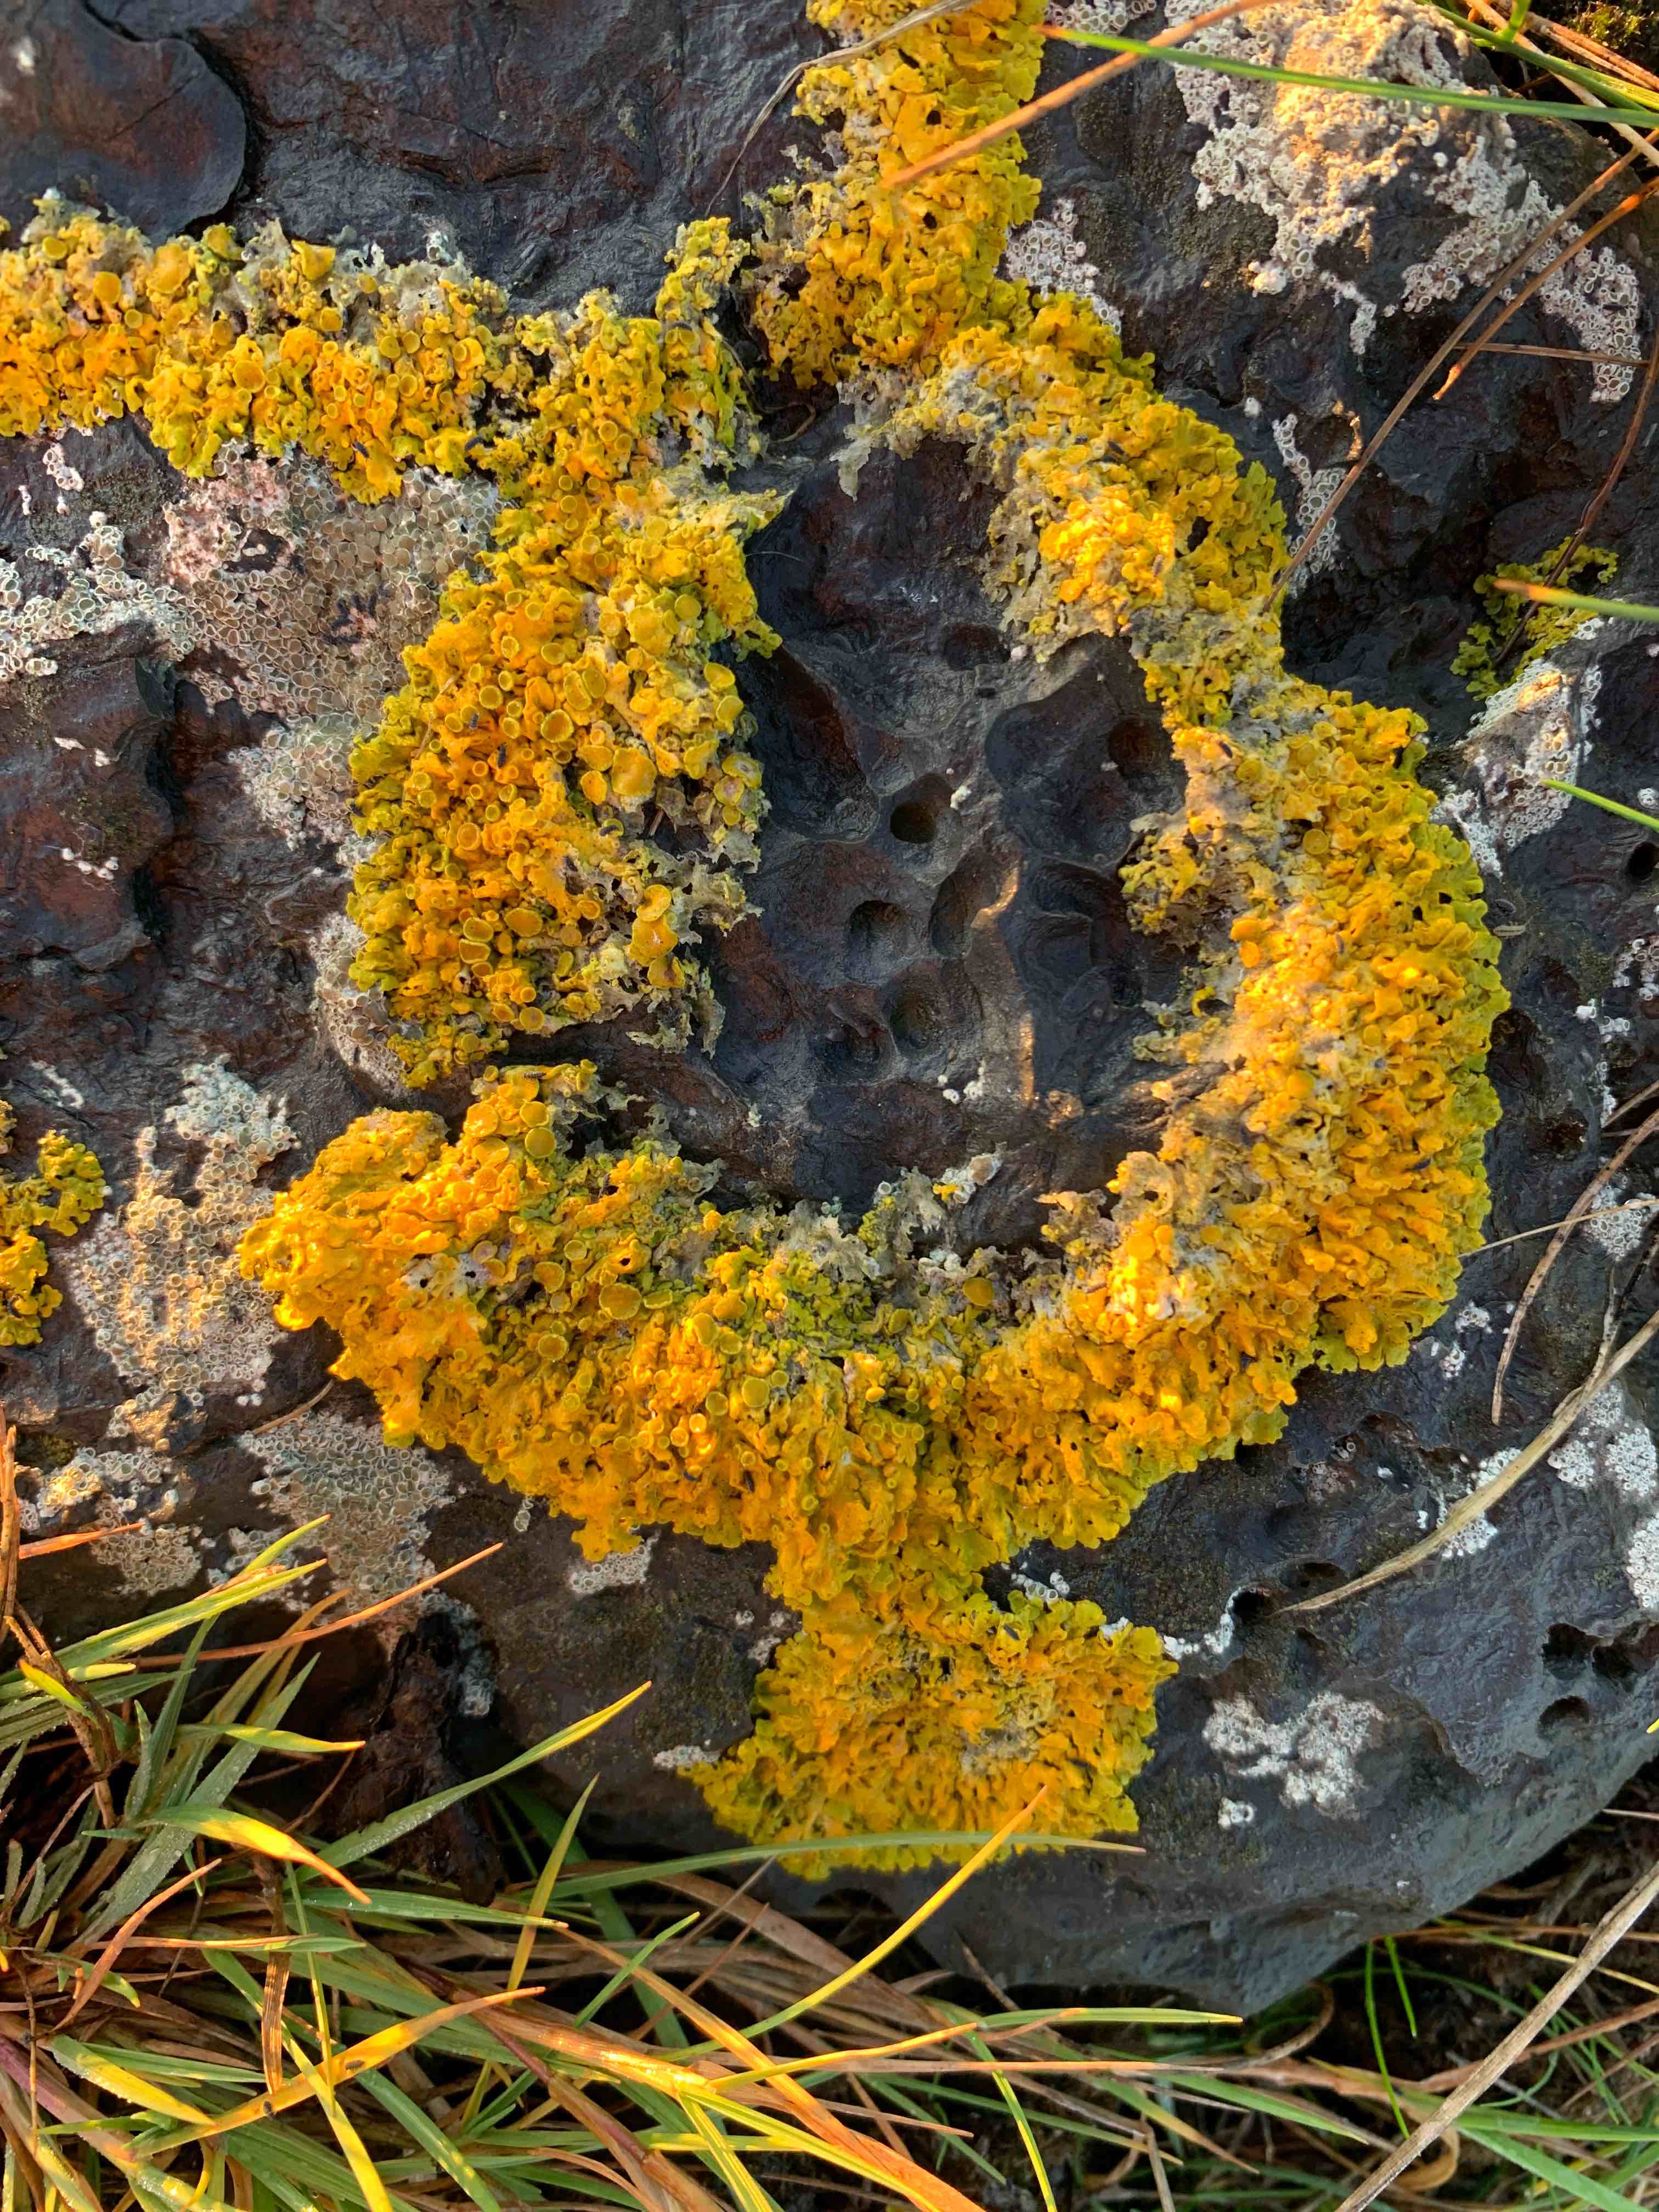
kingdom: Fungi
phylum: Ascomycota
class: Lecanoromycetes
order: Teloschistales
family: Teloschistaceae
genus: Xanthoria
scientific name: Xanthoria parietina
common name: almindelig væggelav
